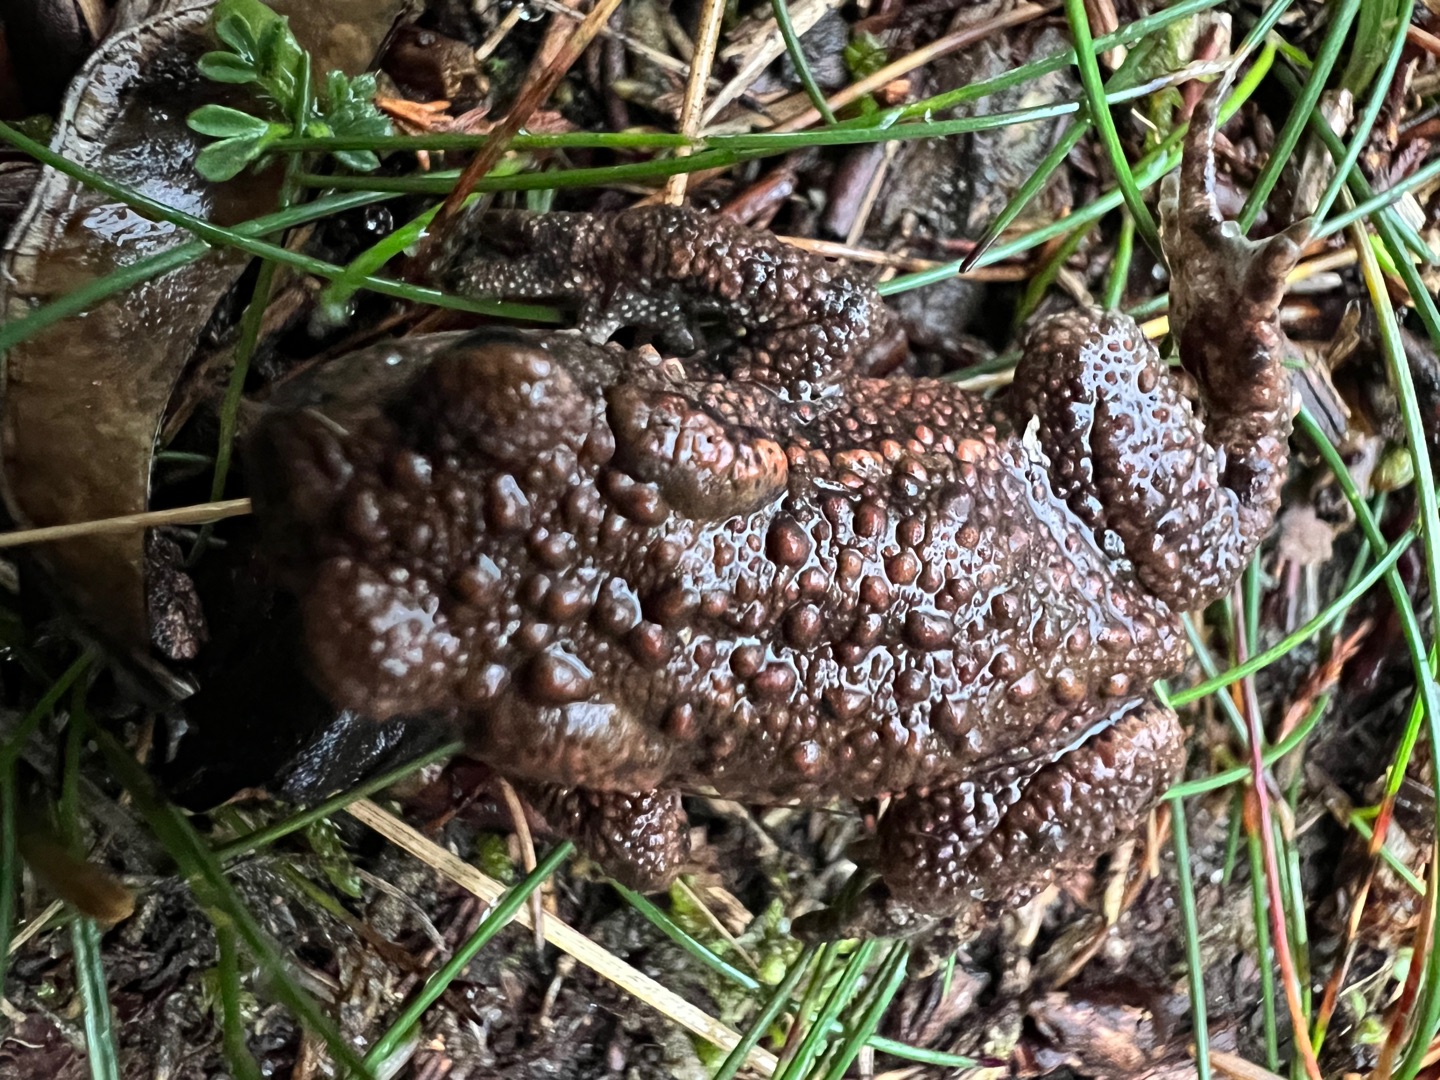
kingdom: Animalia
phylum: Chordata
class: Amphibia
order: Anura
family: Bufonidae
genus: Bufo
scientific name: Bufo bufo
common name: Skrubtudse
